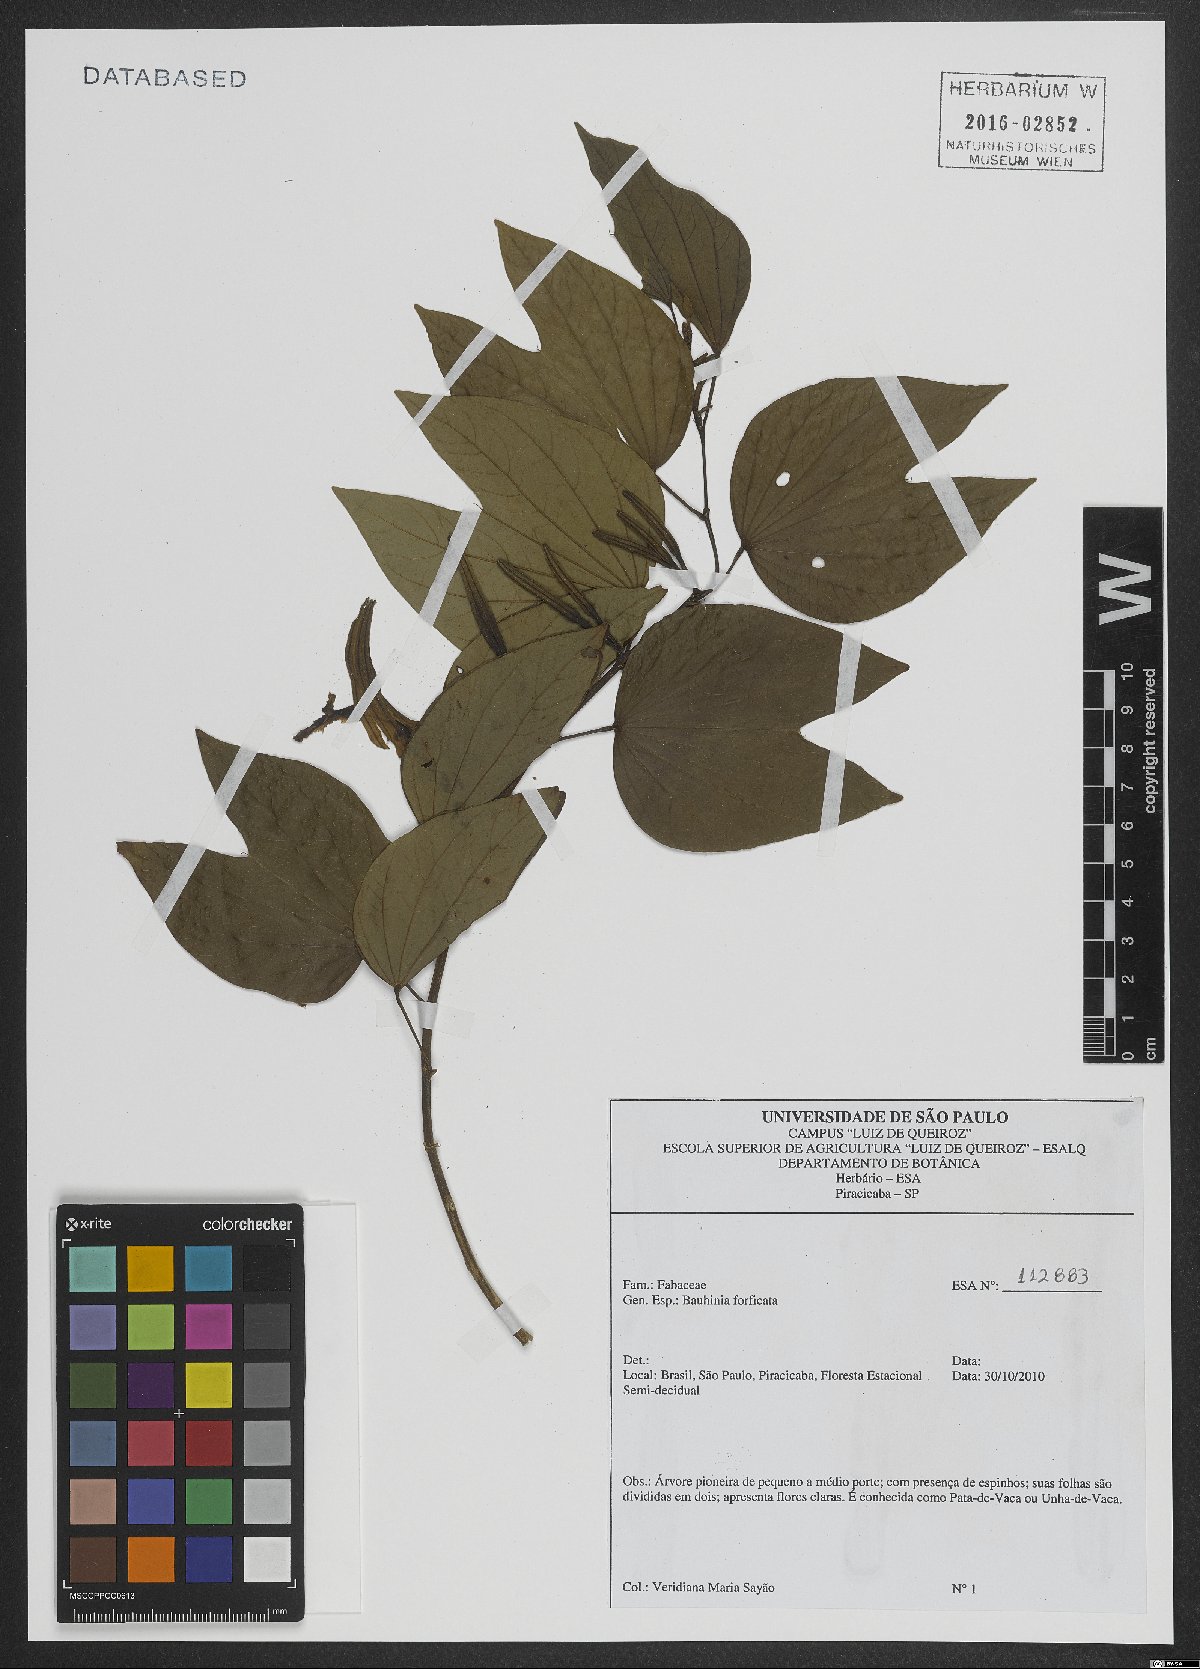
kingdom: Plantae
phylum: Tracheophyta
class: Magnoliopsida
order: Fabales
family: Fabaceae
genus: Bauhinia
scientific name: Bauhinia forficata
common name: Orchid tree
